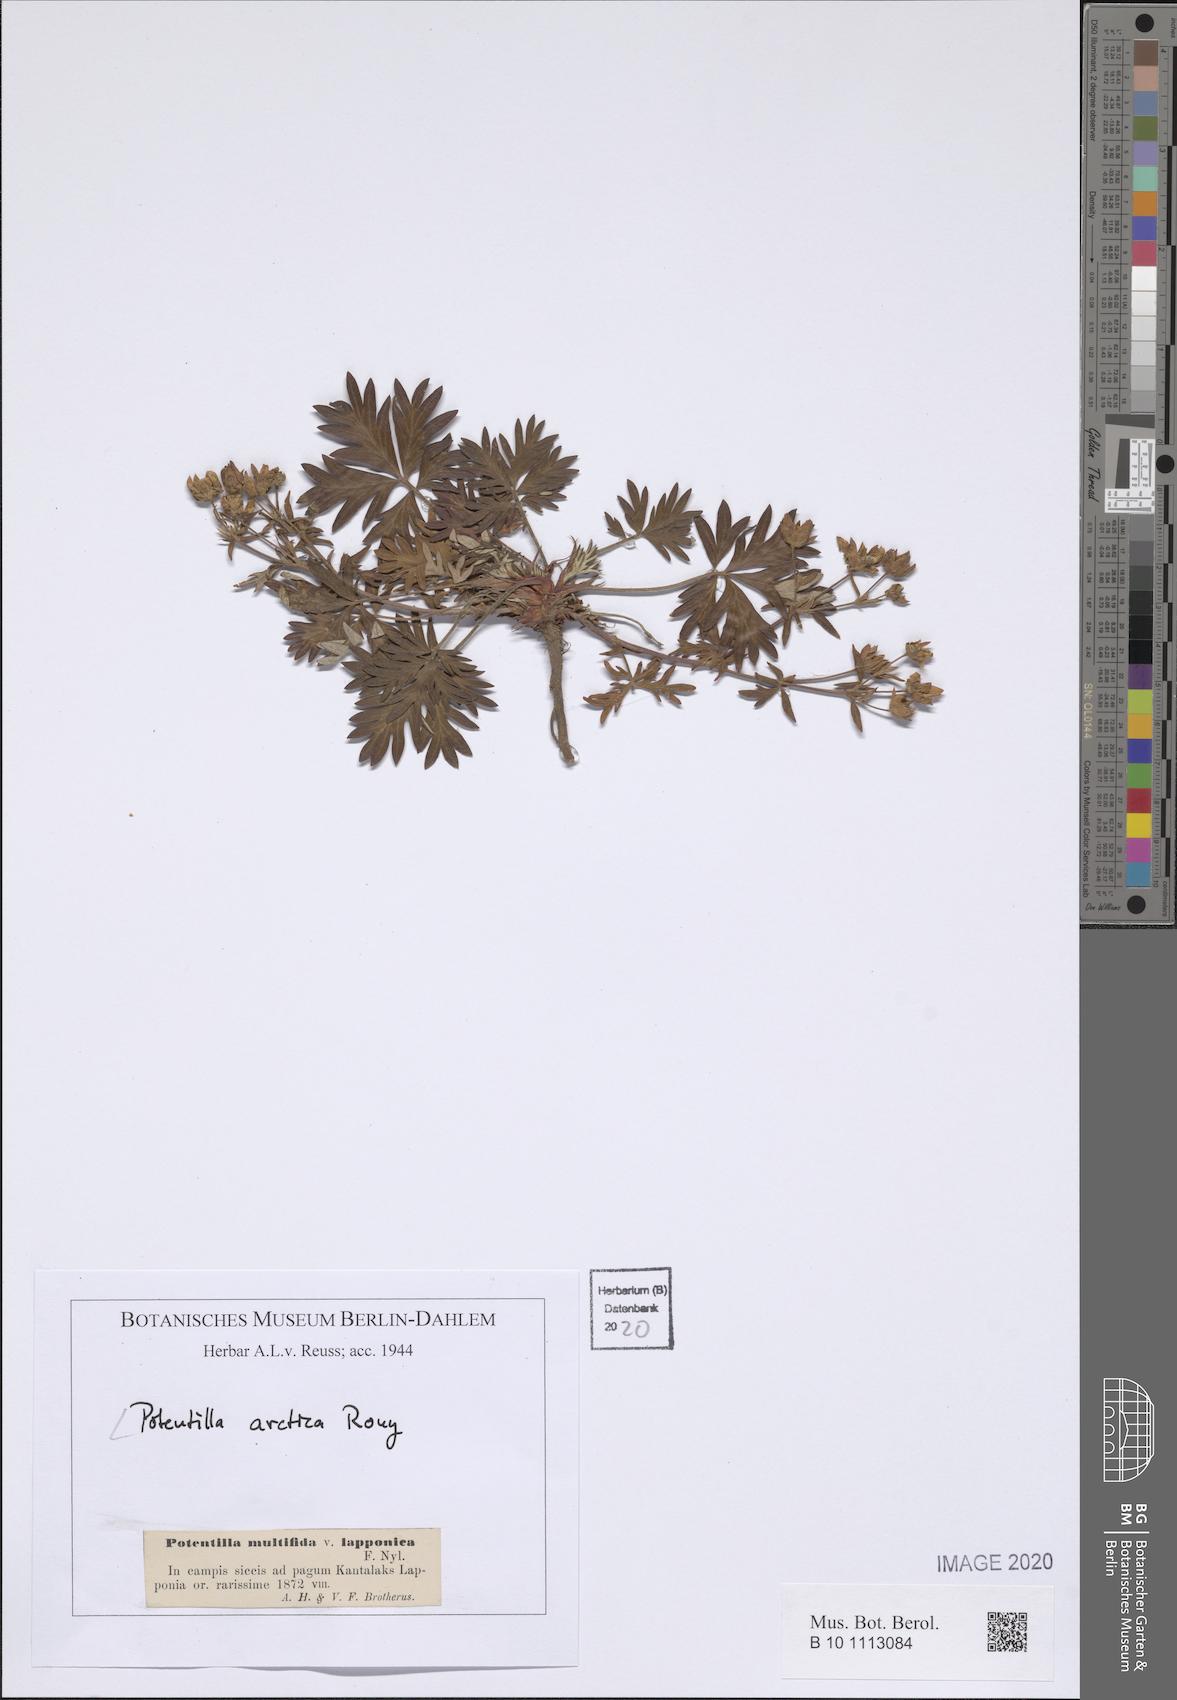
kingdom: Plantae
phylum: Tracheophyta
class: Magnoliopsida
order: Rosales
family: Rosaceae
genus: Potentilla
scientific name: Potentilla multifida
